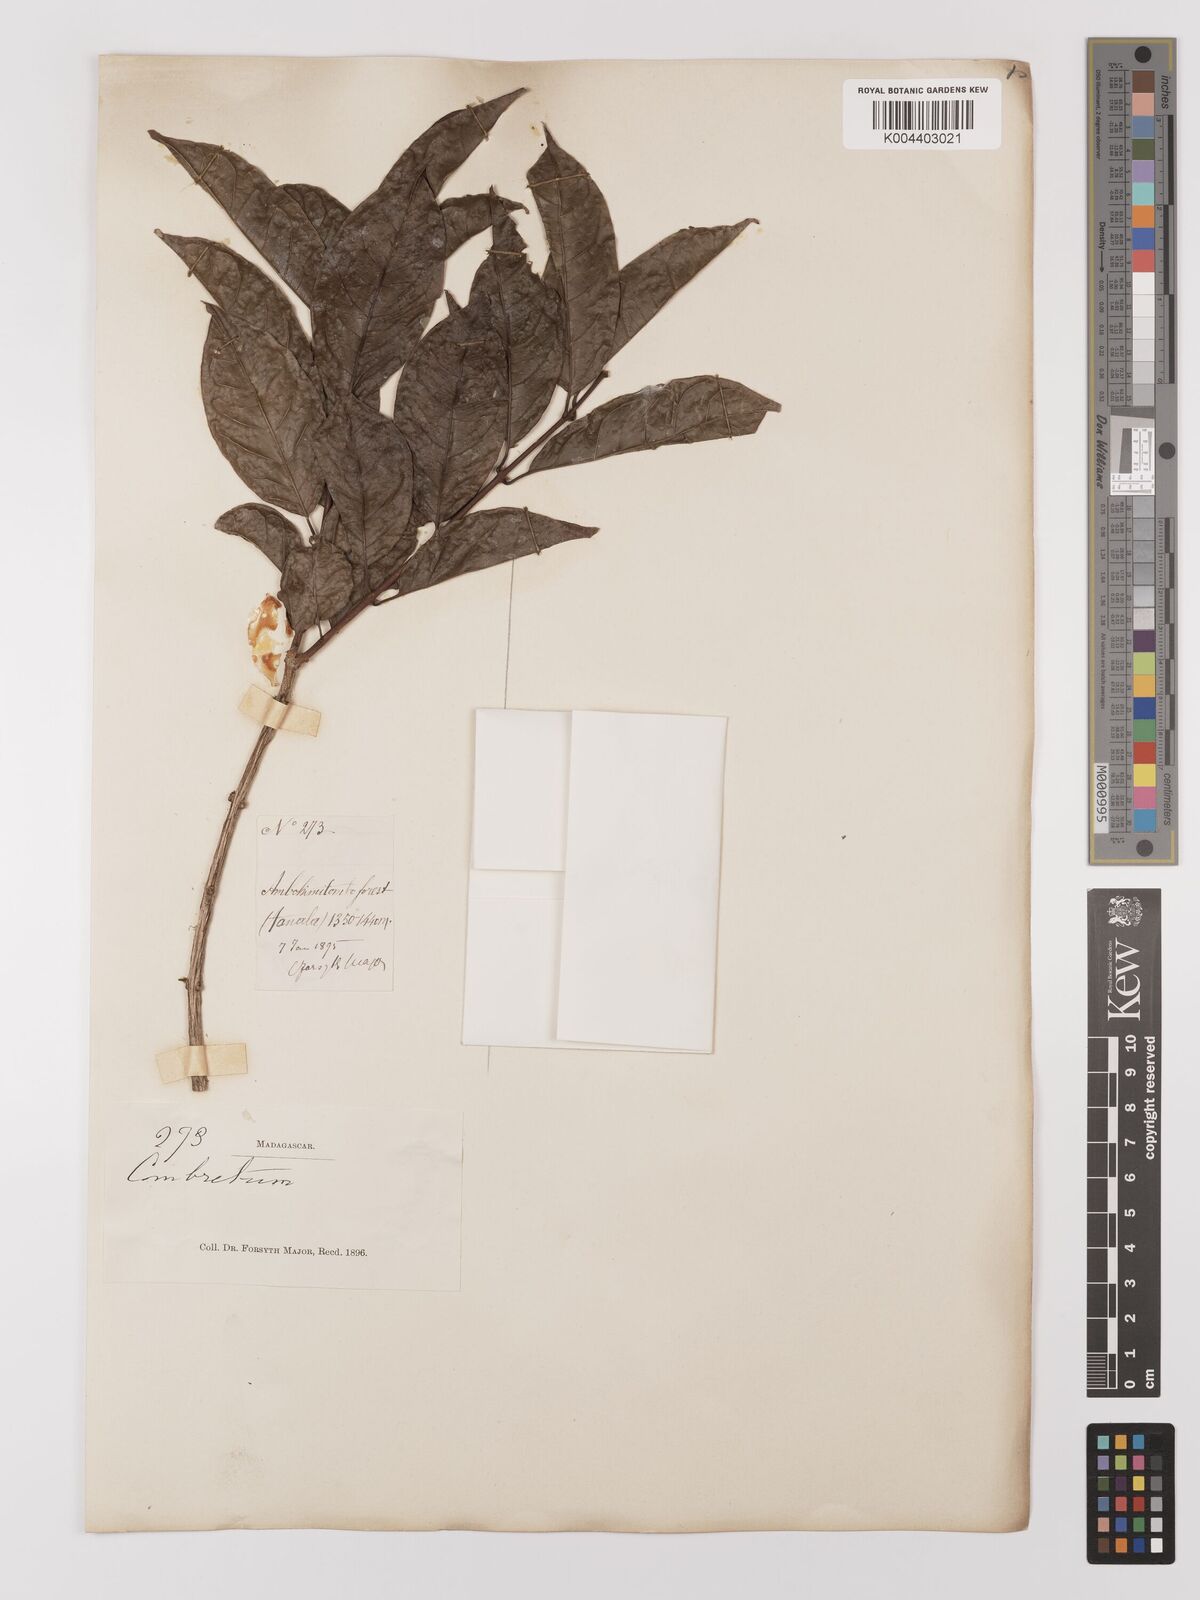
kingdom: Plantae
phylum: Tracheophyta
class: Magnoliopsida
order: Myrtales
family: Combretaceae
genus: Combretum
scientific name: Combretum
